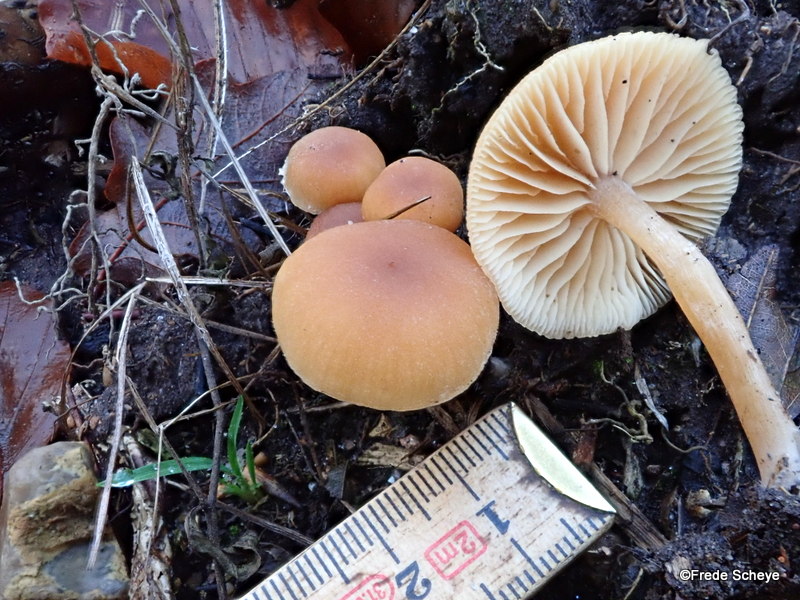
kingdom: Fungi
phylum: Basidiomycota
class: Agaricomycetes
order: Agaricales
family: Tubariaceae
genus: Tubaria
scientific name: Tubaria furfuracea
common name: kliddet fnughat
